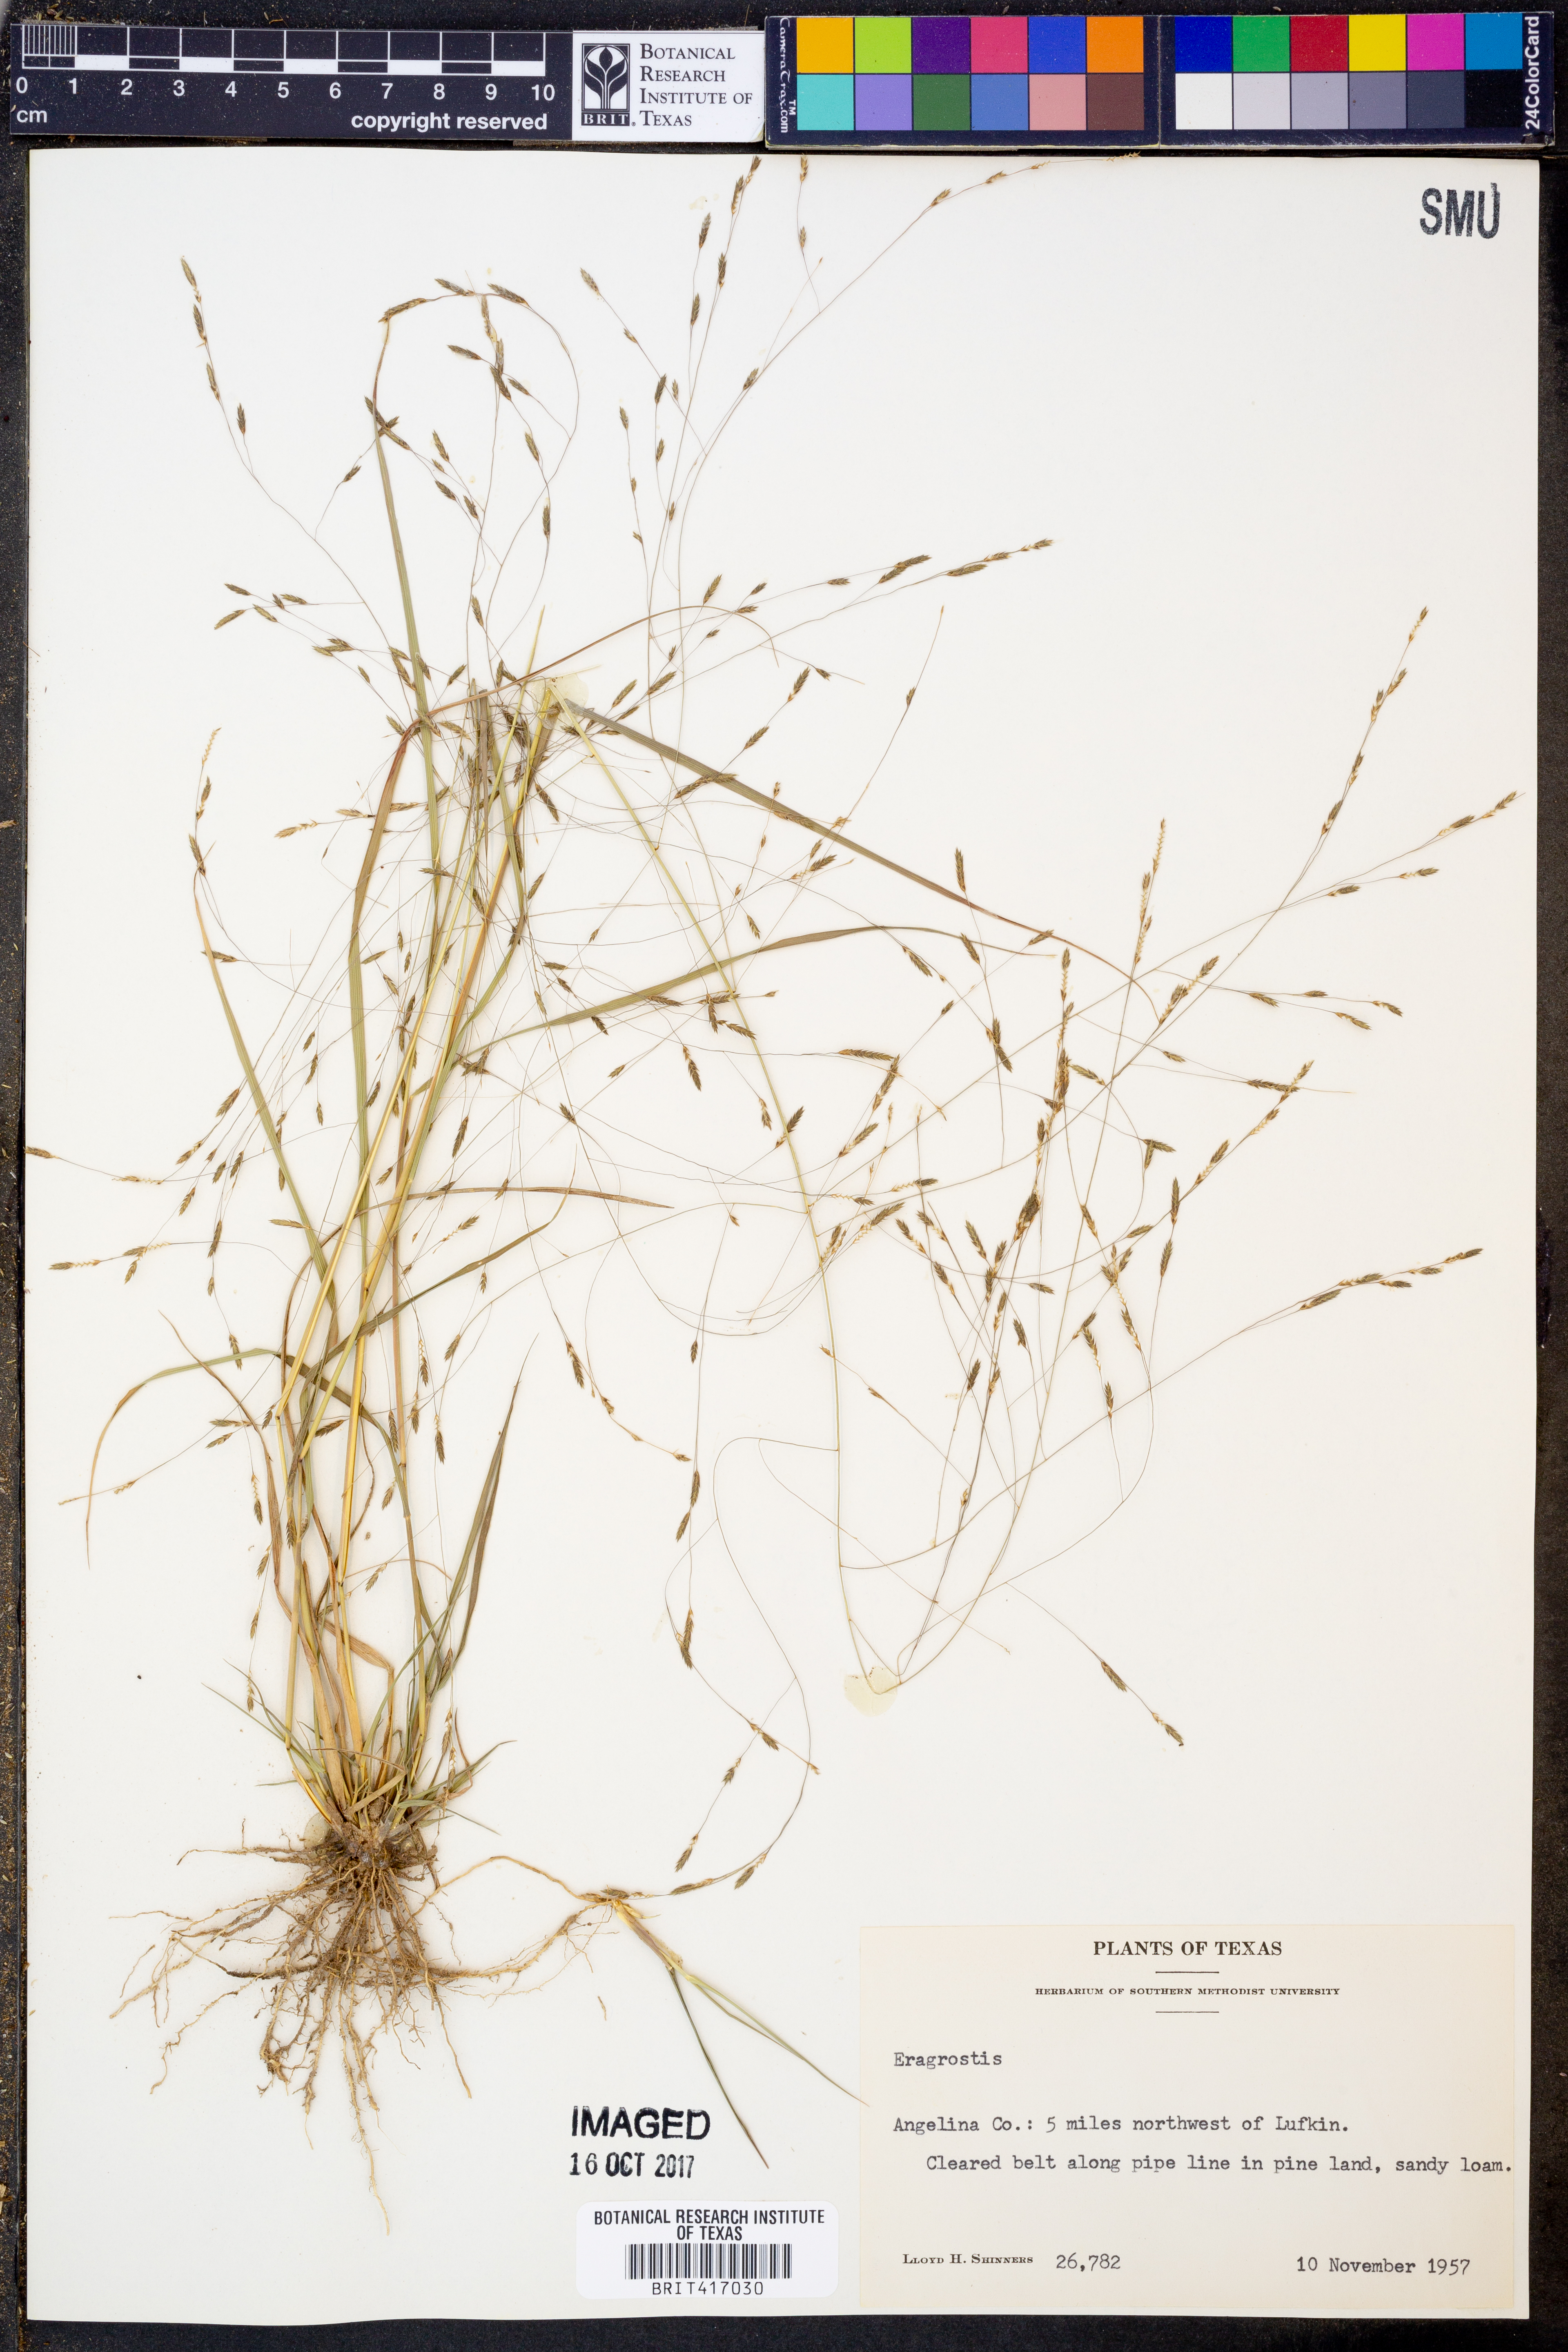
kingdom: Plantae
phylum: Tracheophyta
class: Liliopsida
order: Poales
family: Poaceae
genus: Eragrostis
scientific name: Eragrostis
